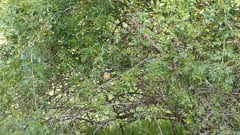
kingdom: Animalia
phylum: Chordata
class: Aves
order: Passeriformes
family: Muscicapidae
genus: Phoenicurus
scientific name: Phoenicurus phoenicurus
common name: Common redstart
